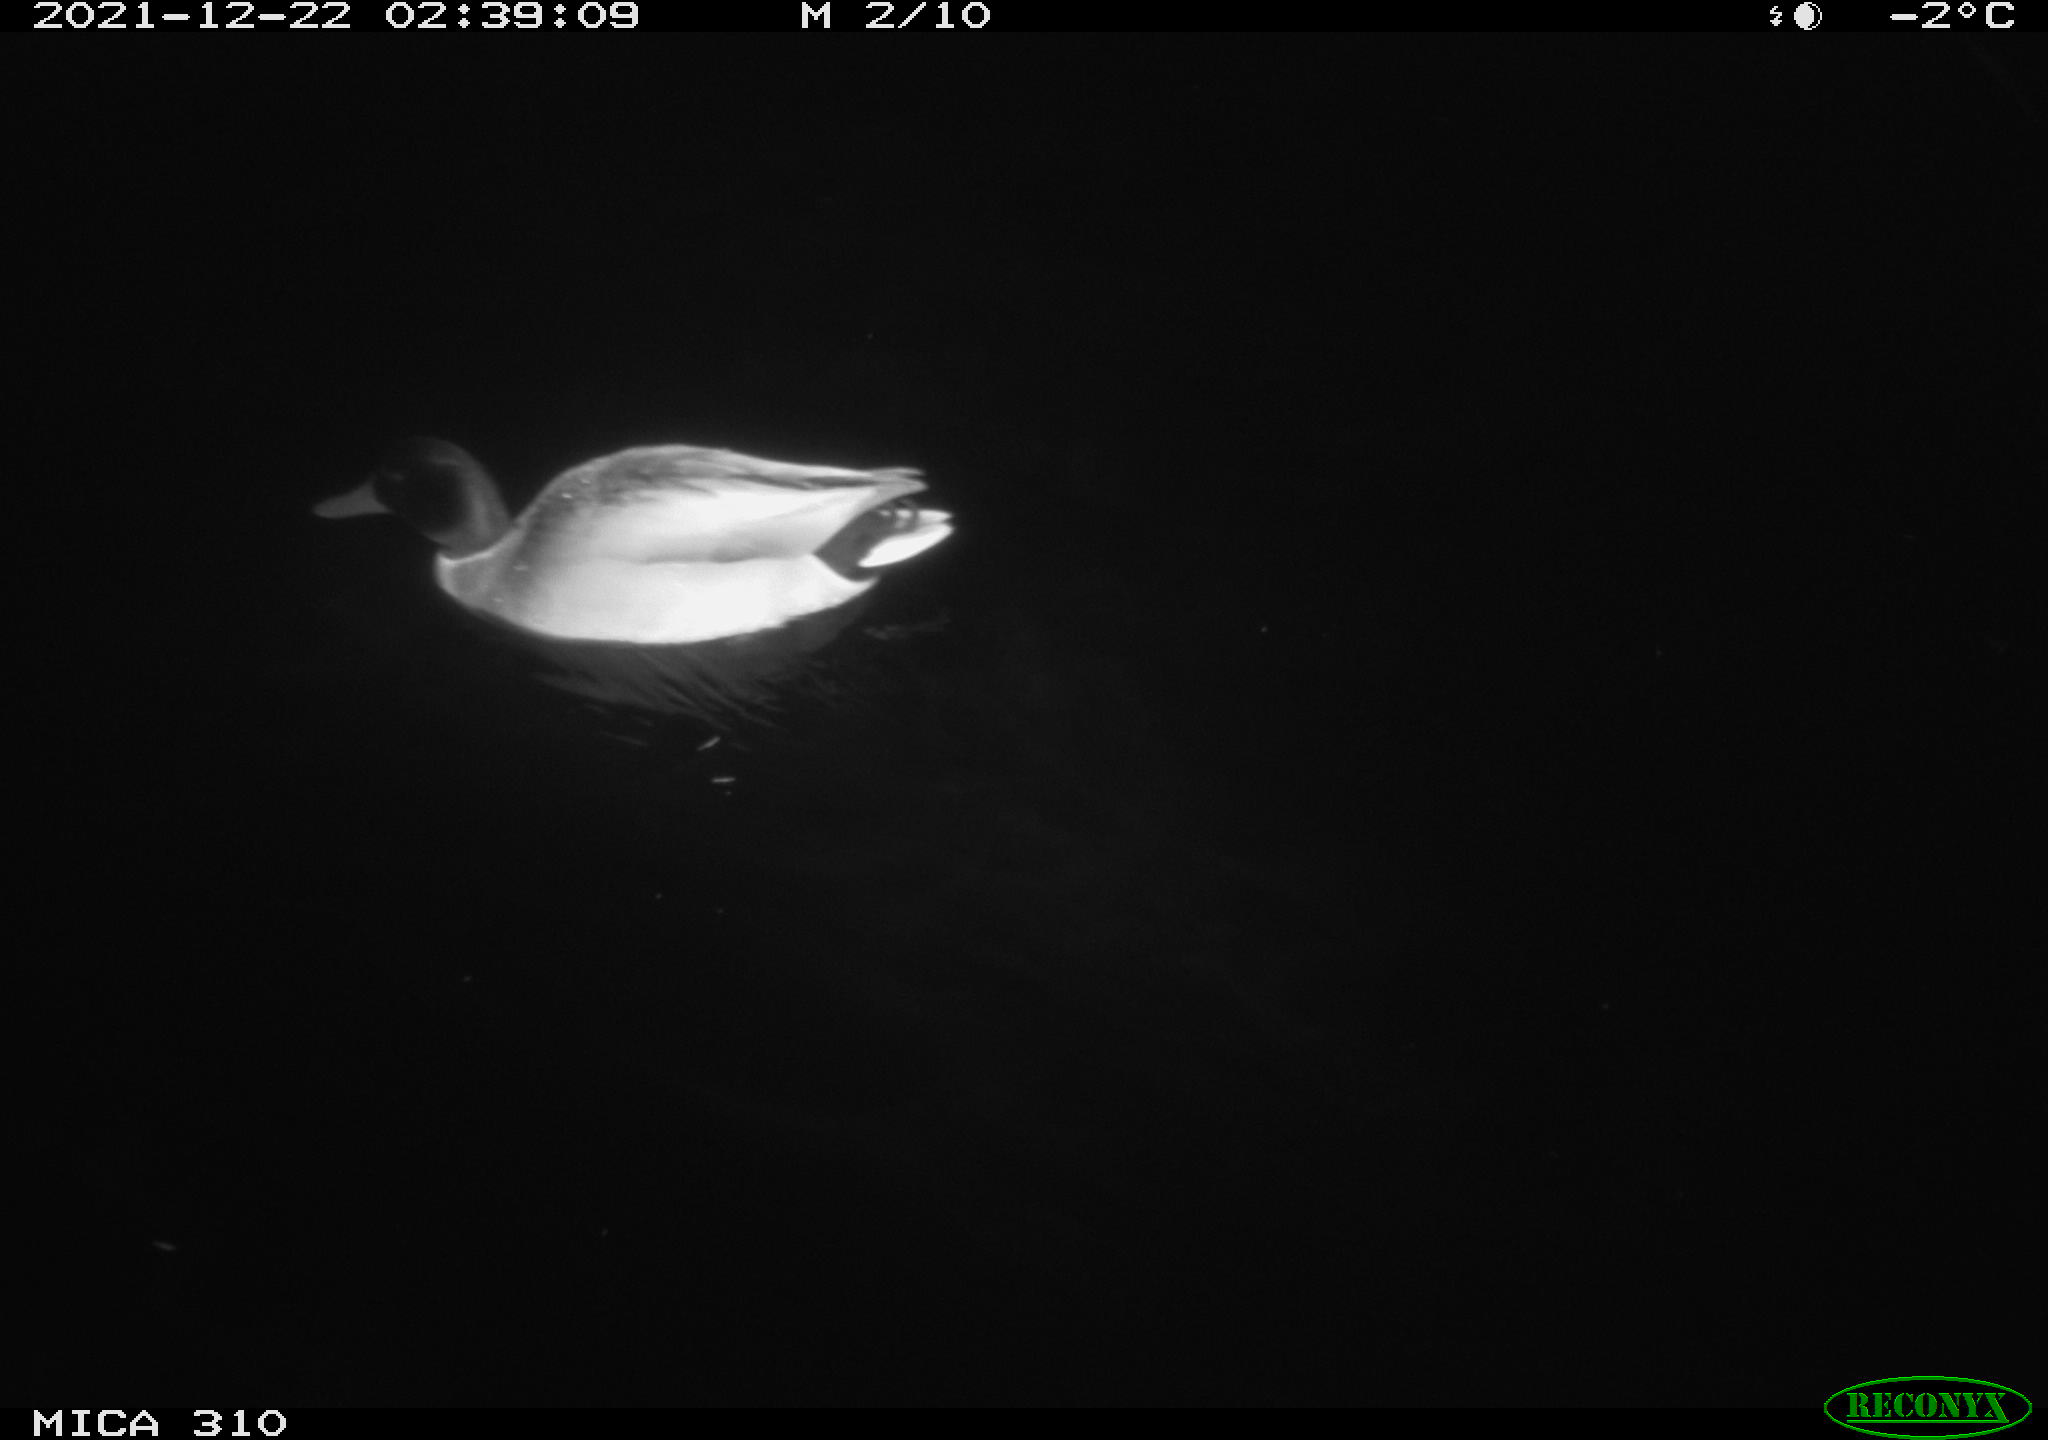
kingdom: Animalia
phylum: Chordata
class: Aves
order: Anseriformes
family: Anatidae
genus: Mareca
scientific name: Mareca strepera
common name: Gadwall
